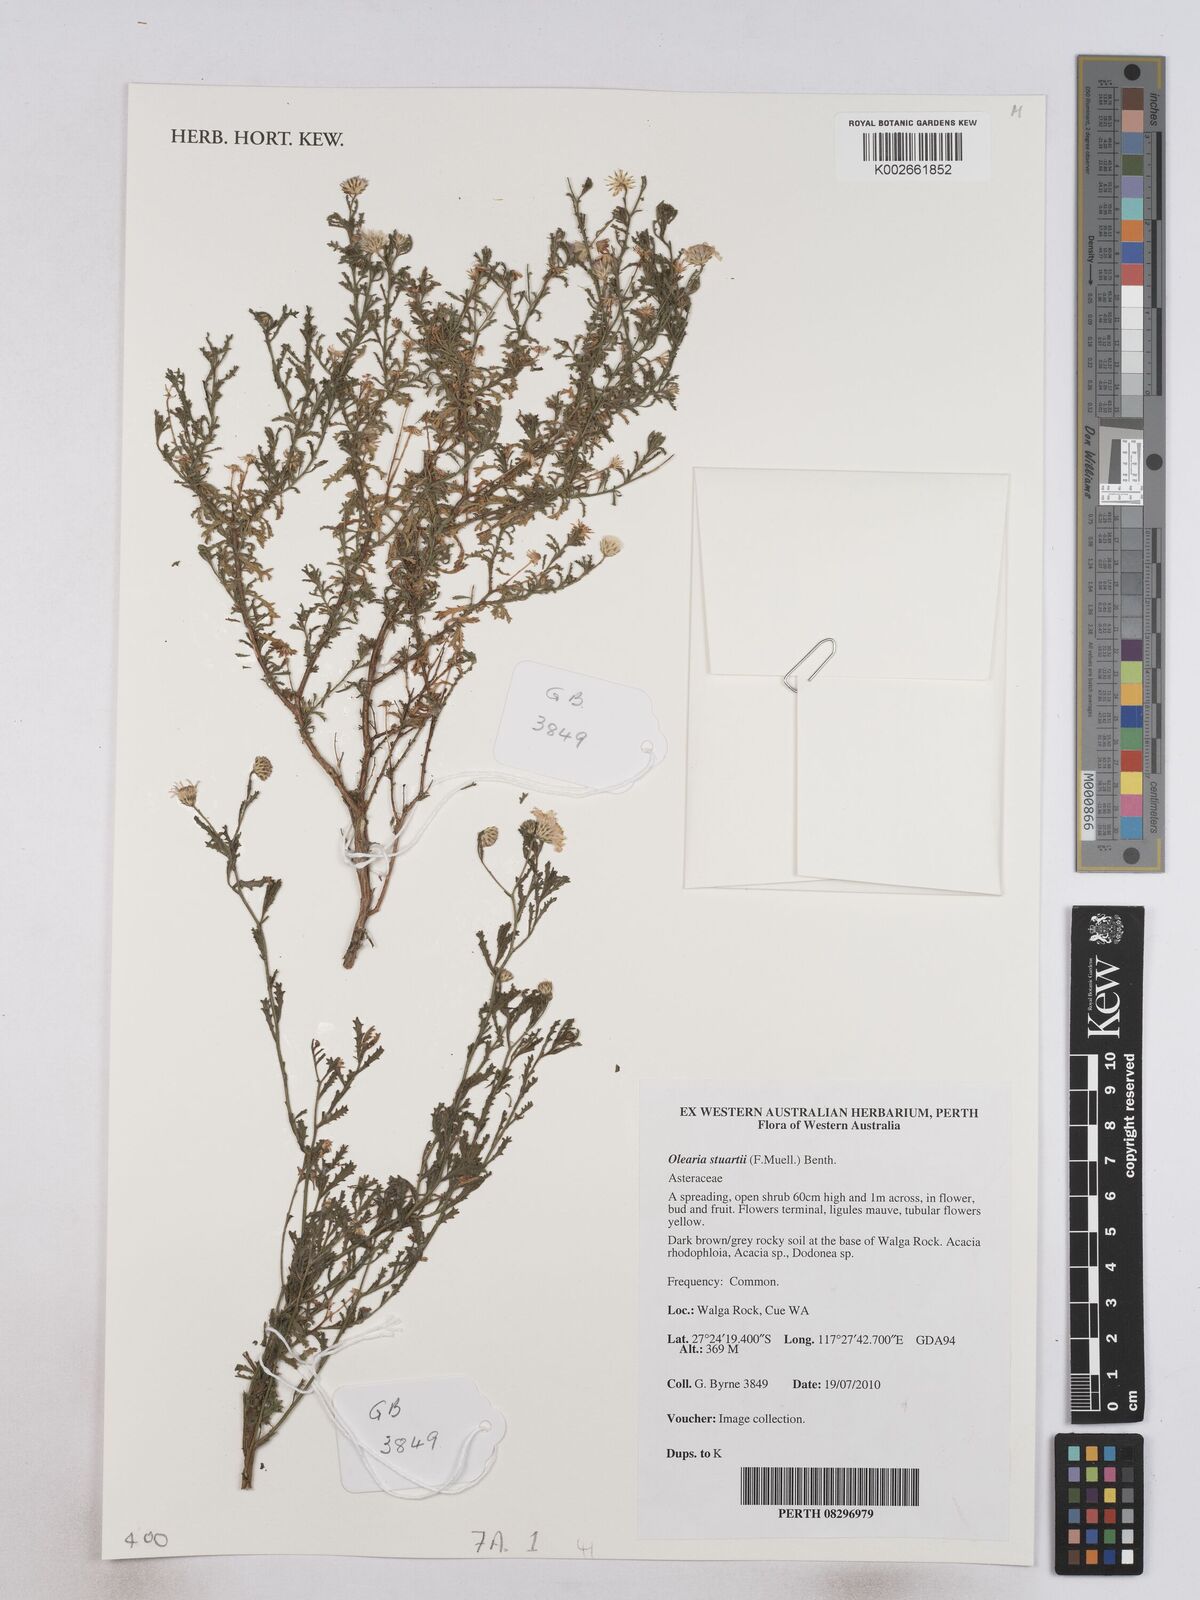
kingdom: Plantae
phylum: Tracheophyta
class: Magnoliopsida
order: Asterales
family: Asteraceae
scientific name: Asteraceae
